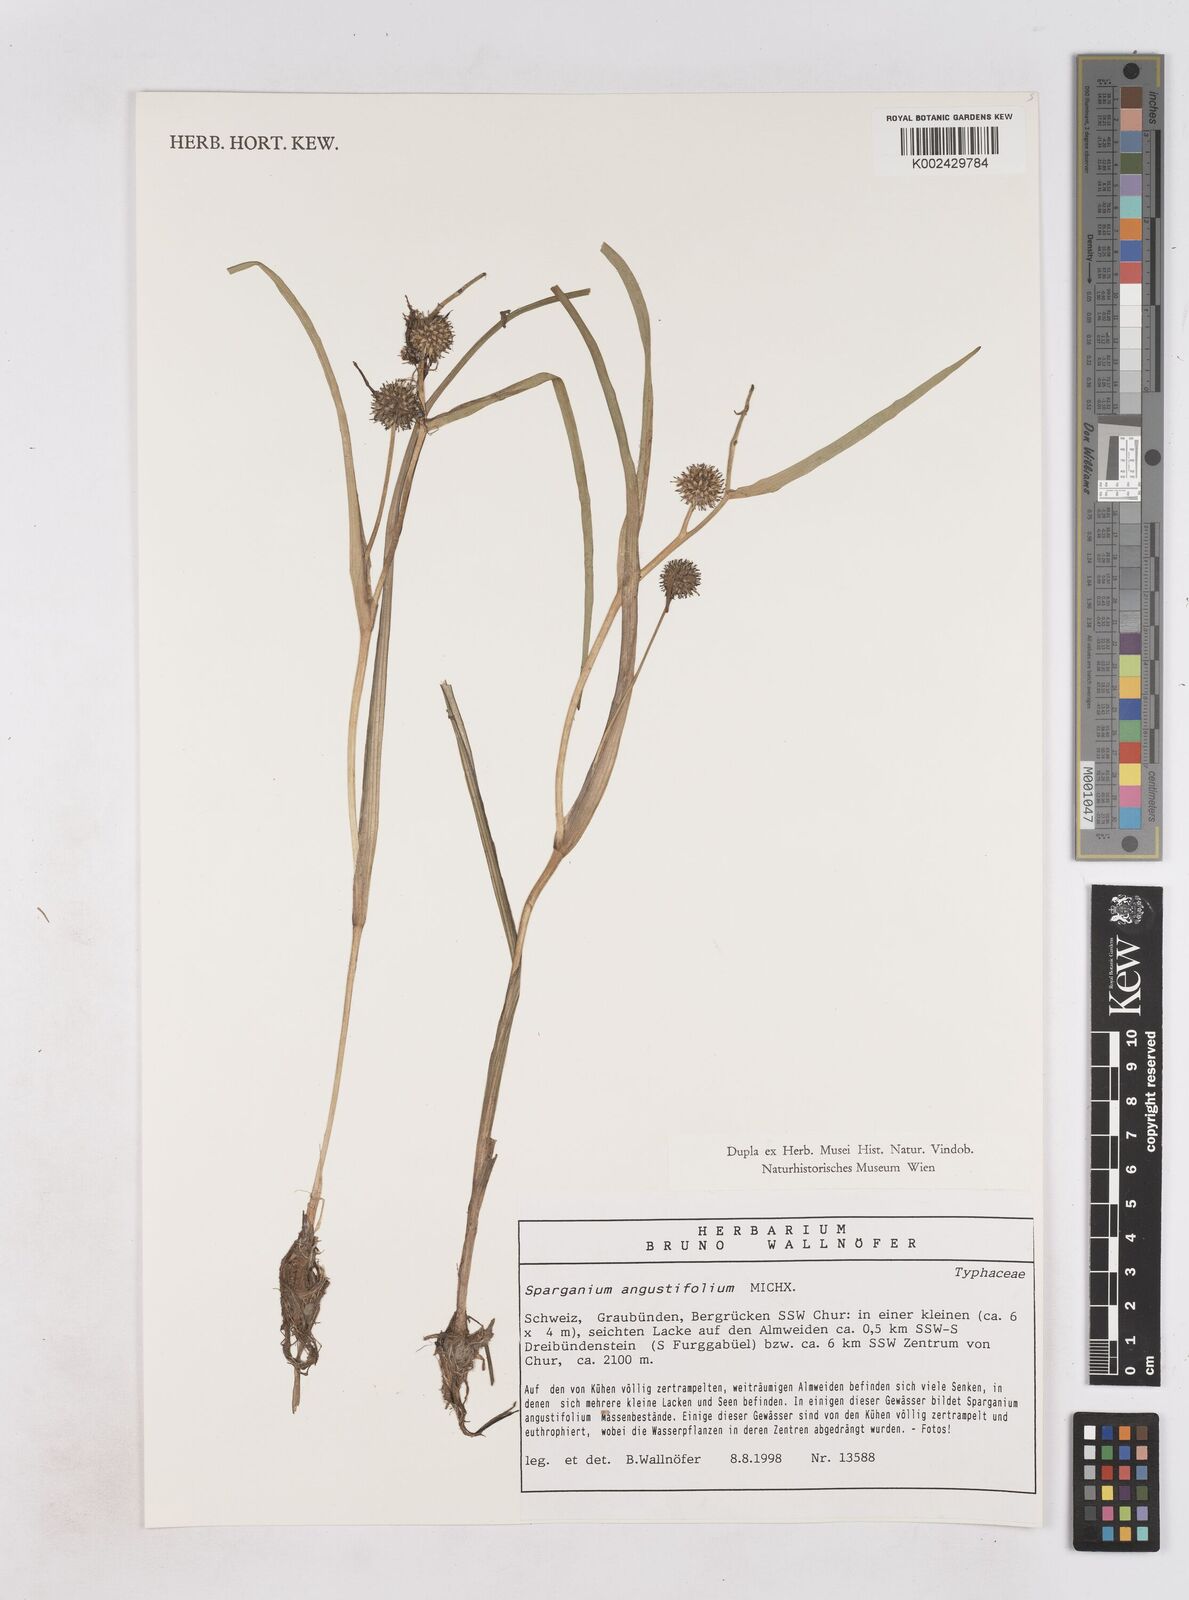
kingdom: Plantae
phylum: Tracheophyta
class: Liliopsida
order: Poales
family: Typhaceae
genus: Sparganium
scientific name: Sparganium angustifolium
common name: Floating bur-reed
